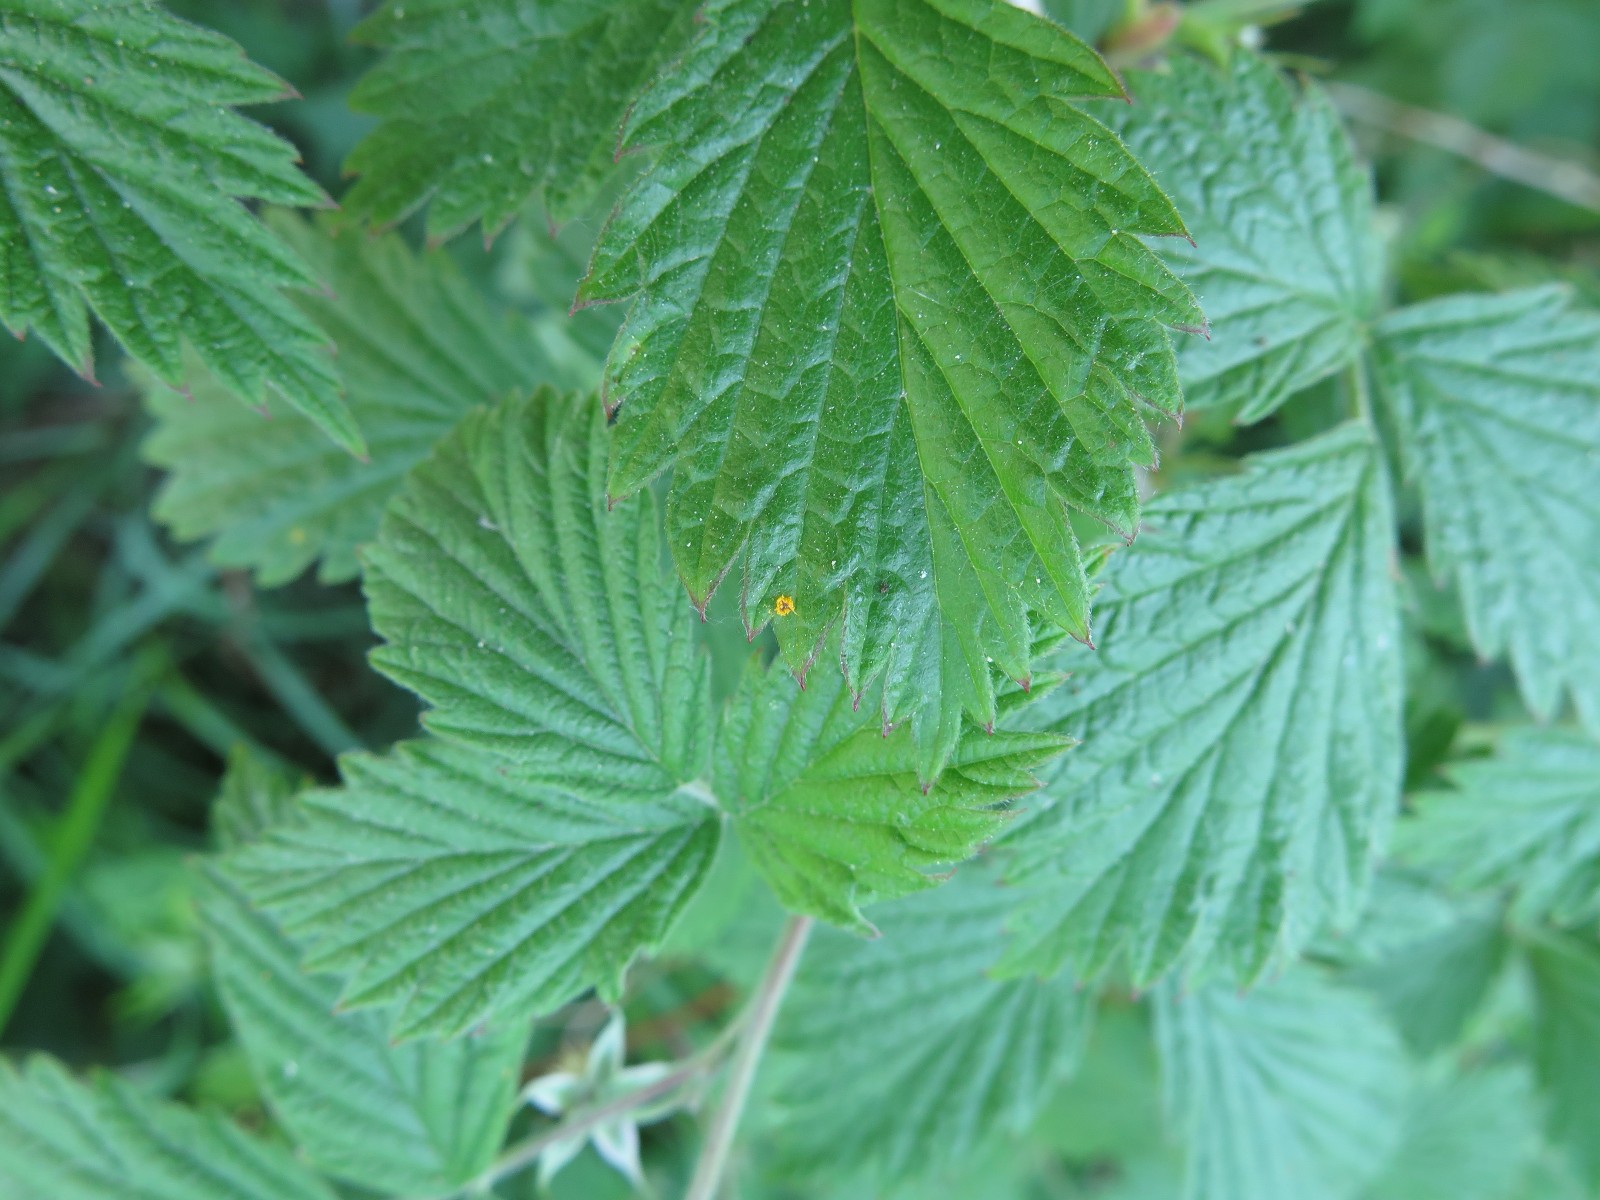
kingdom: Fungi
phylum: Basidiomycota
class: Pucciniomycetes
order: Pucciniales
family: Phragmidiaceae
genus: Phragmidium
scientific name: Phragmidium rubi-idaei
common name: hindbær-flercellerust
